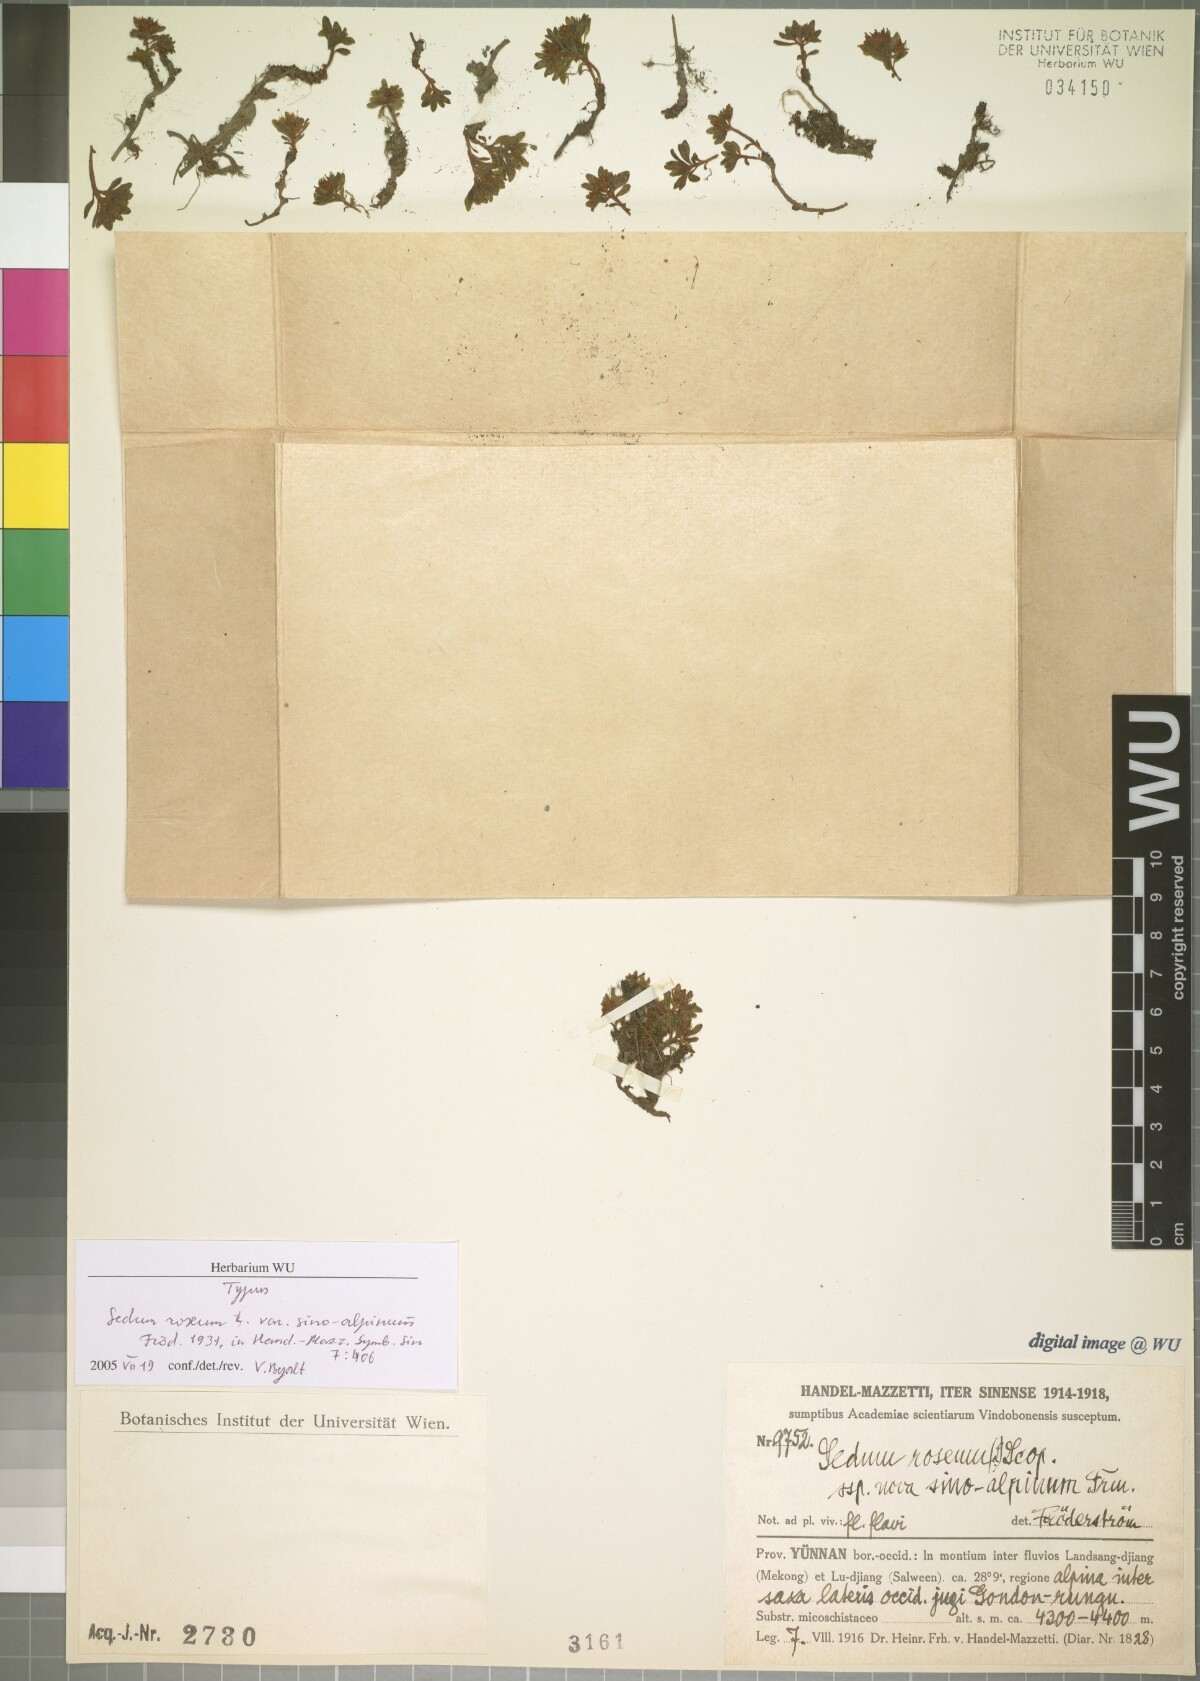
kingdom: Plantae
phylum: Tracheophyta
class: Magnoliopsida
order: Saxifragales
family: Crassulaceae
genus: Rhodiola
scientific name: Rhodiola cretinii
